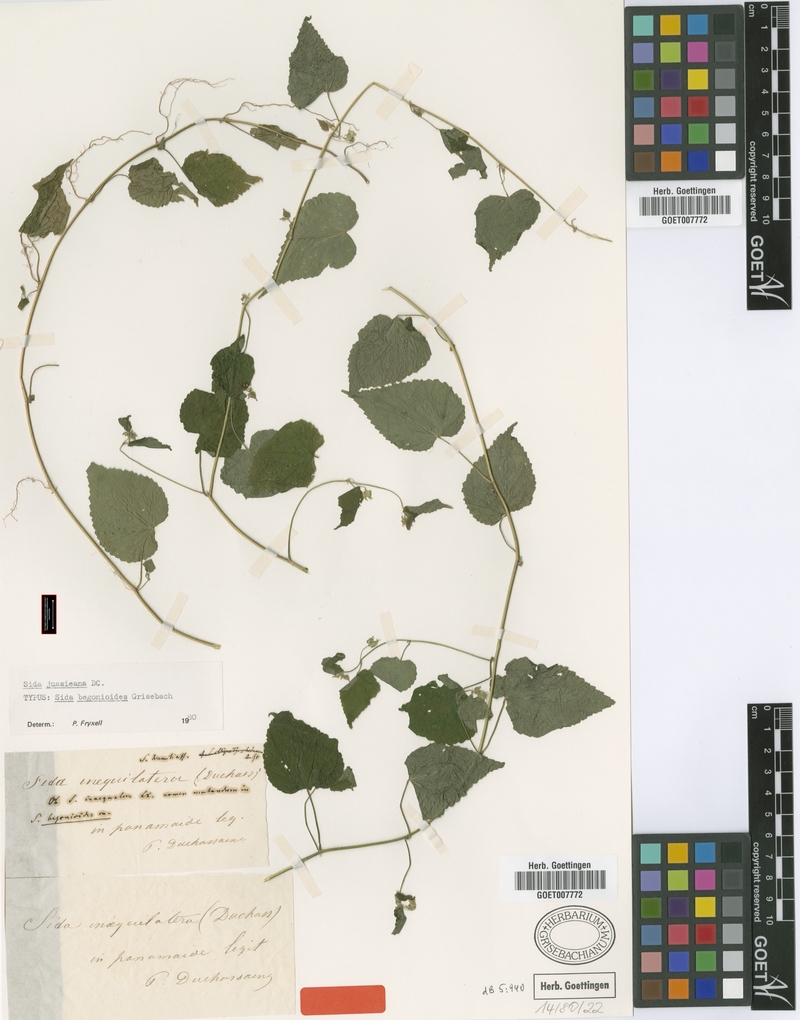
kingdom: Plantae
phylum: Tracheophyta
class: Magnoliopsida
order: Malvales
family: Malvaceae
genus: Sida
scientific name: Sida jussiaeana
